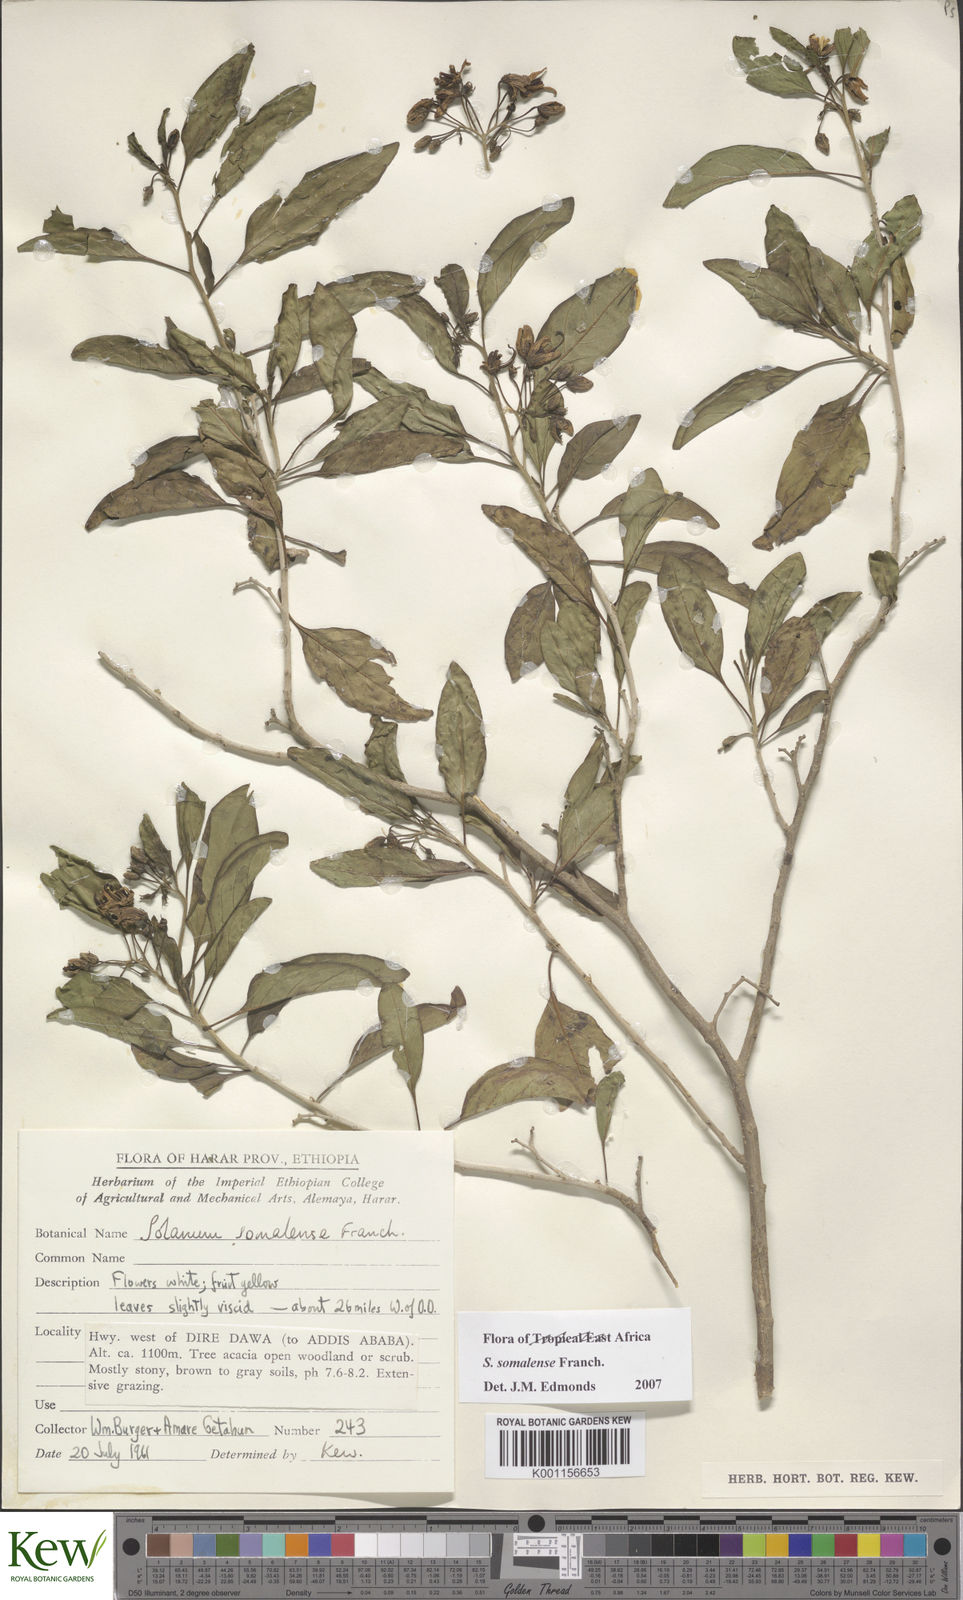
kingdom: Plantae
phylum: Tracheophyta
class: Magnoliopsida
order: Solanales
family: Solanaceae
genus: Solanum
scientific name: Solanum somalense
